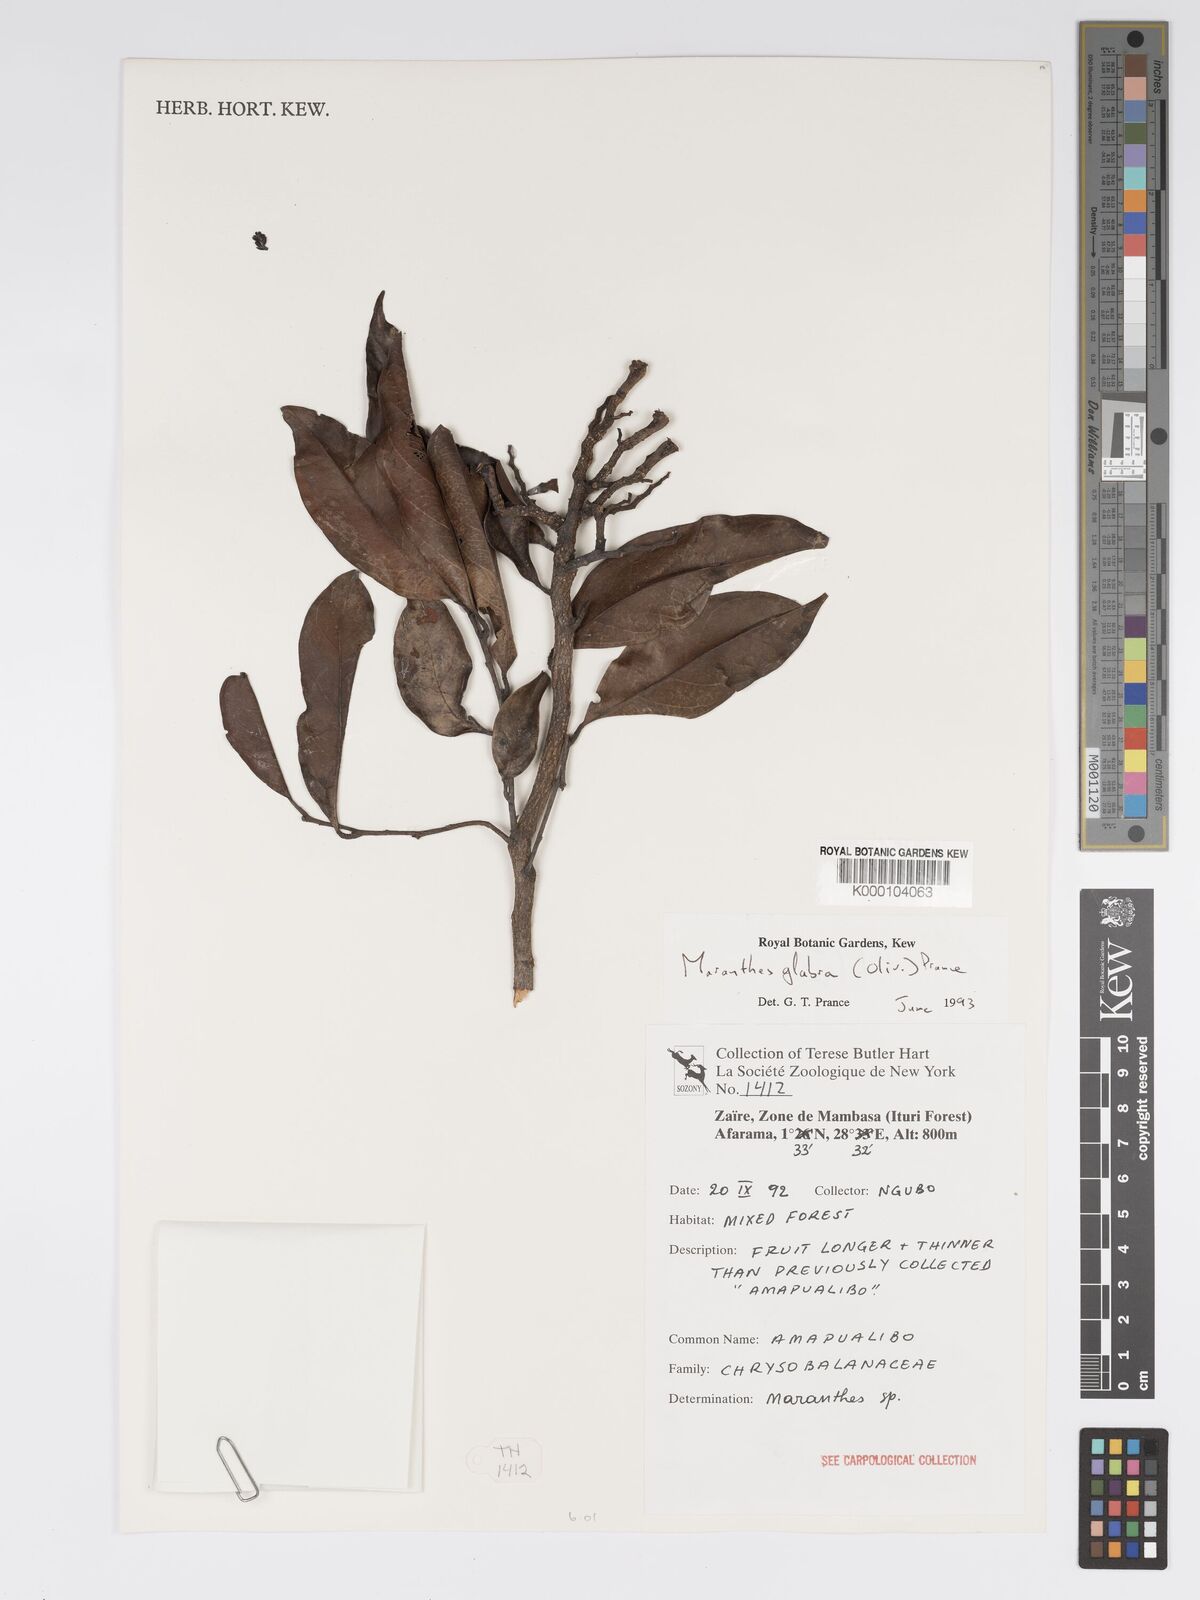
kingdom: Plantae
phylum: Tracheophyta
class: Magnoliopsida
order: Malpighiales
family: Chrysobalanaceae
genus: Maranthes
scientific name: Maranthes glabra
